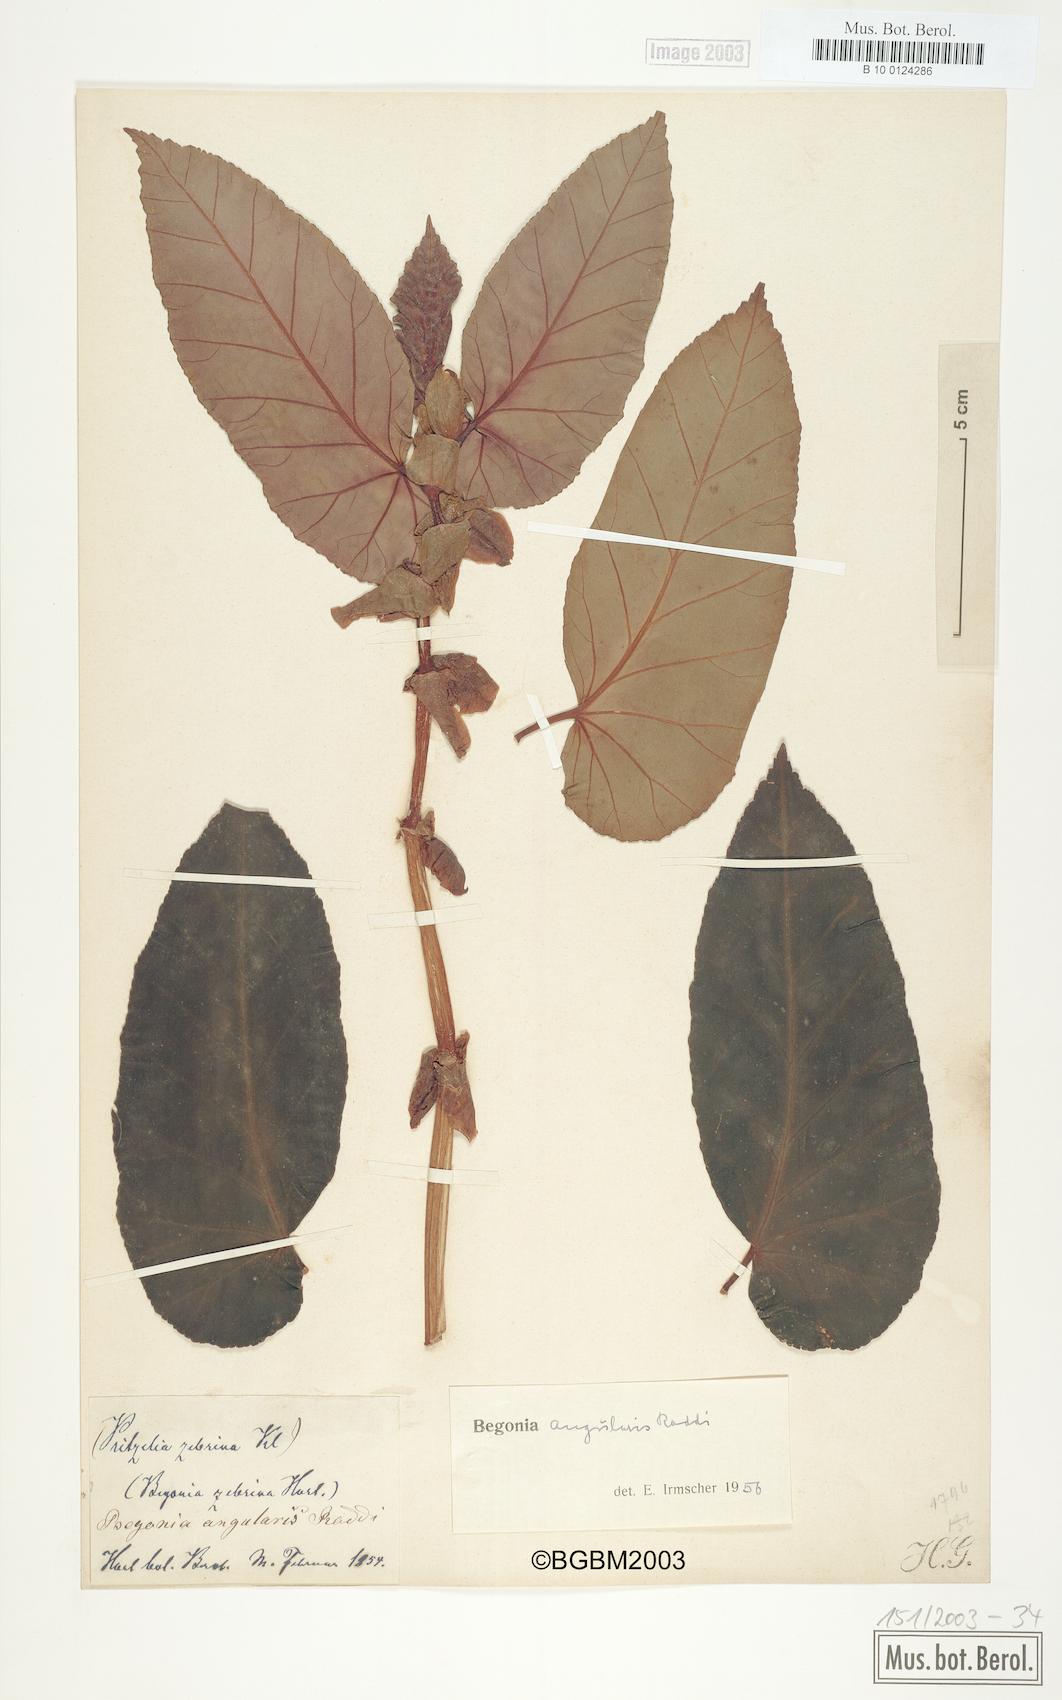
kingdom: Plantae
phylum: Tracheophyta
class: Magnoliopsida
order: Cucurbitales
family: Begoniaceae
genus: Begonia
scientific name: Begonia angularis
